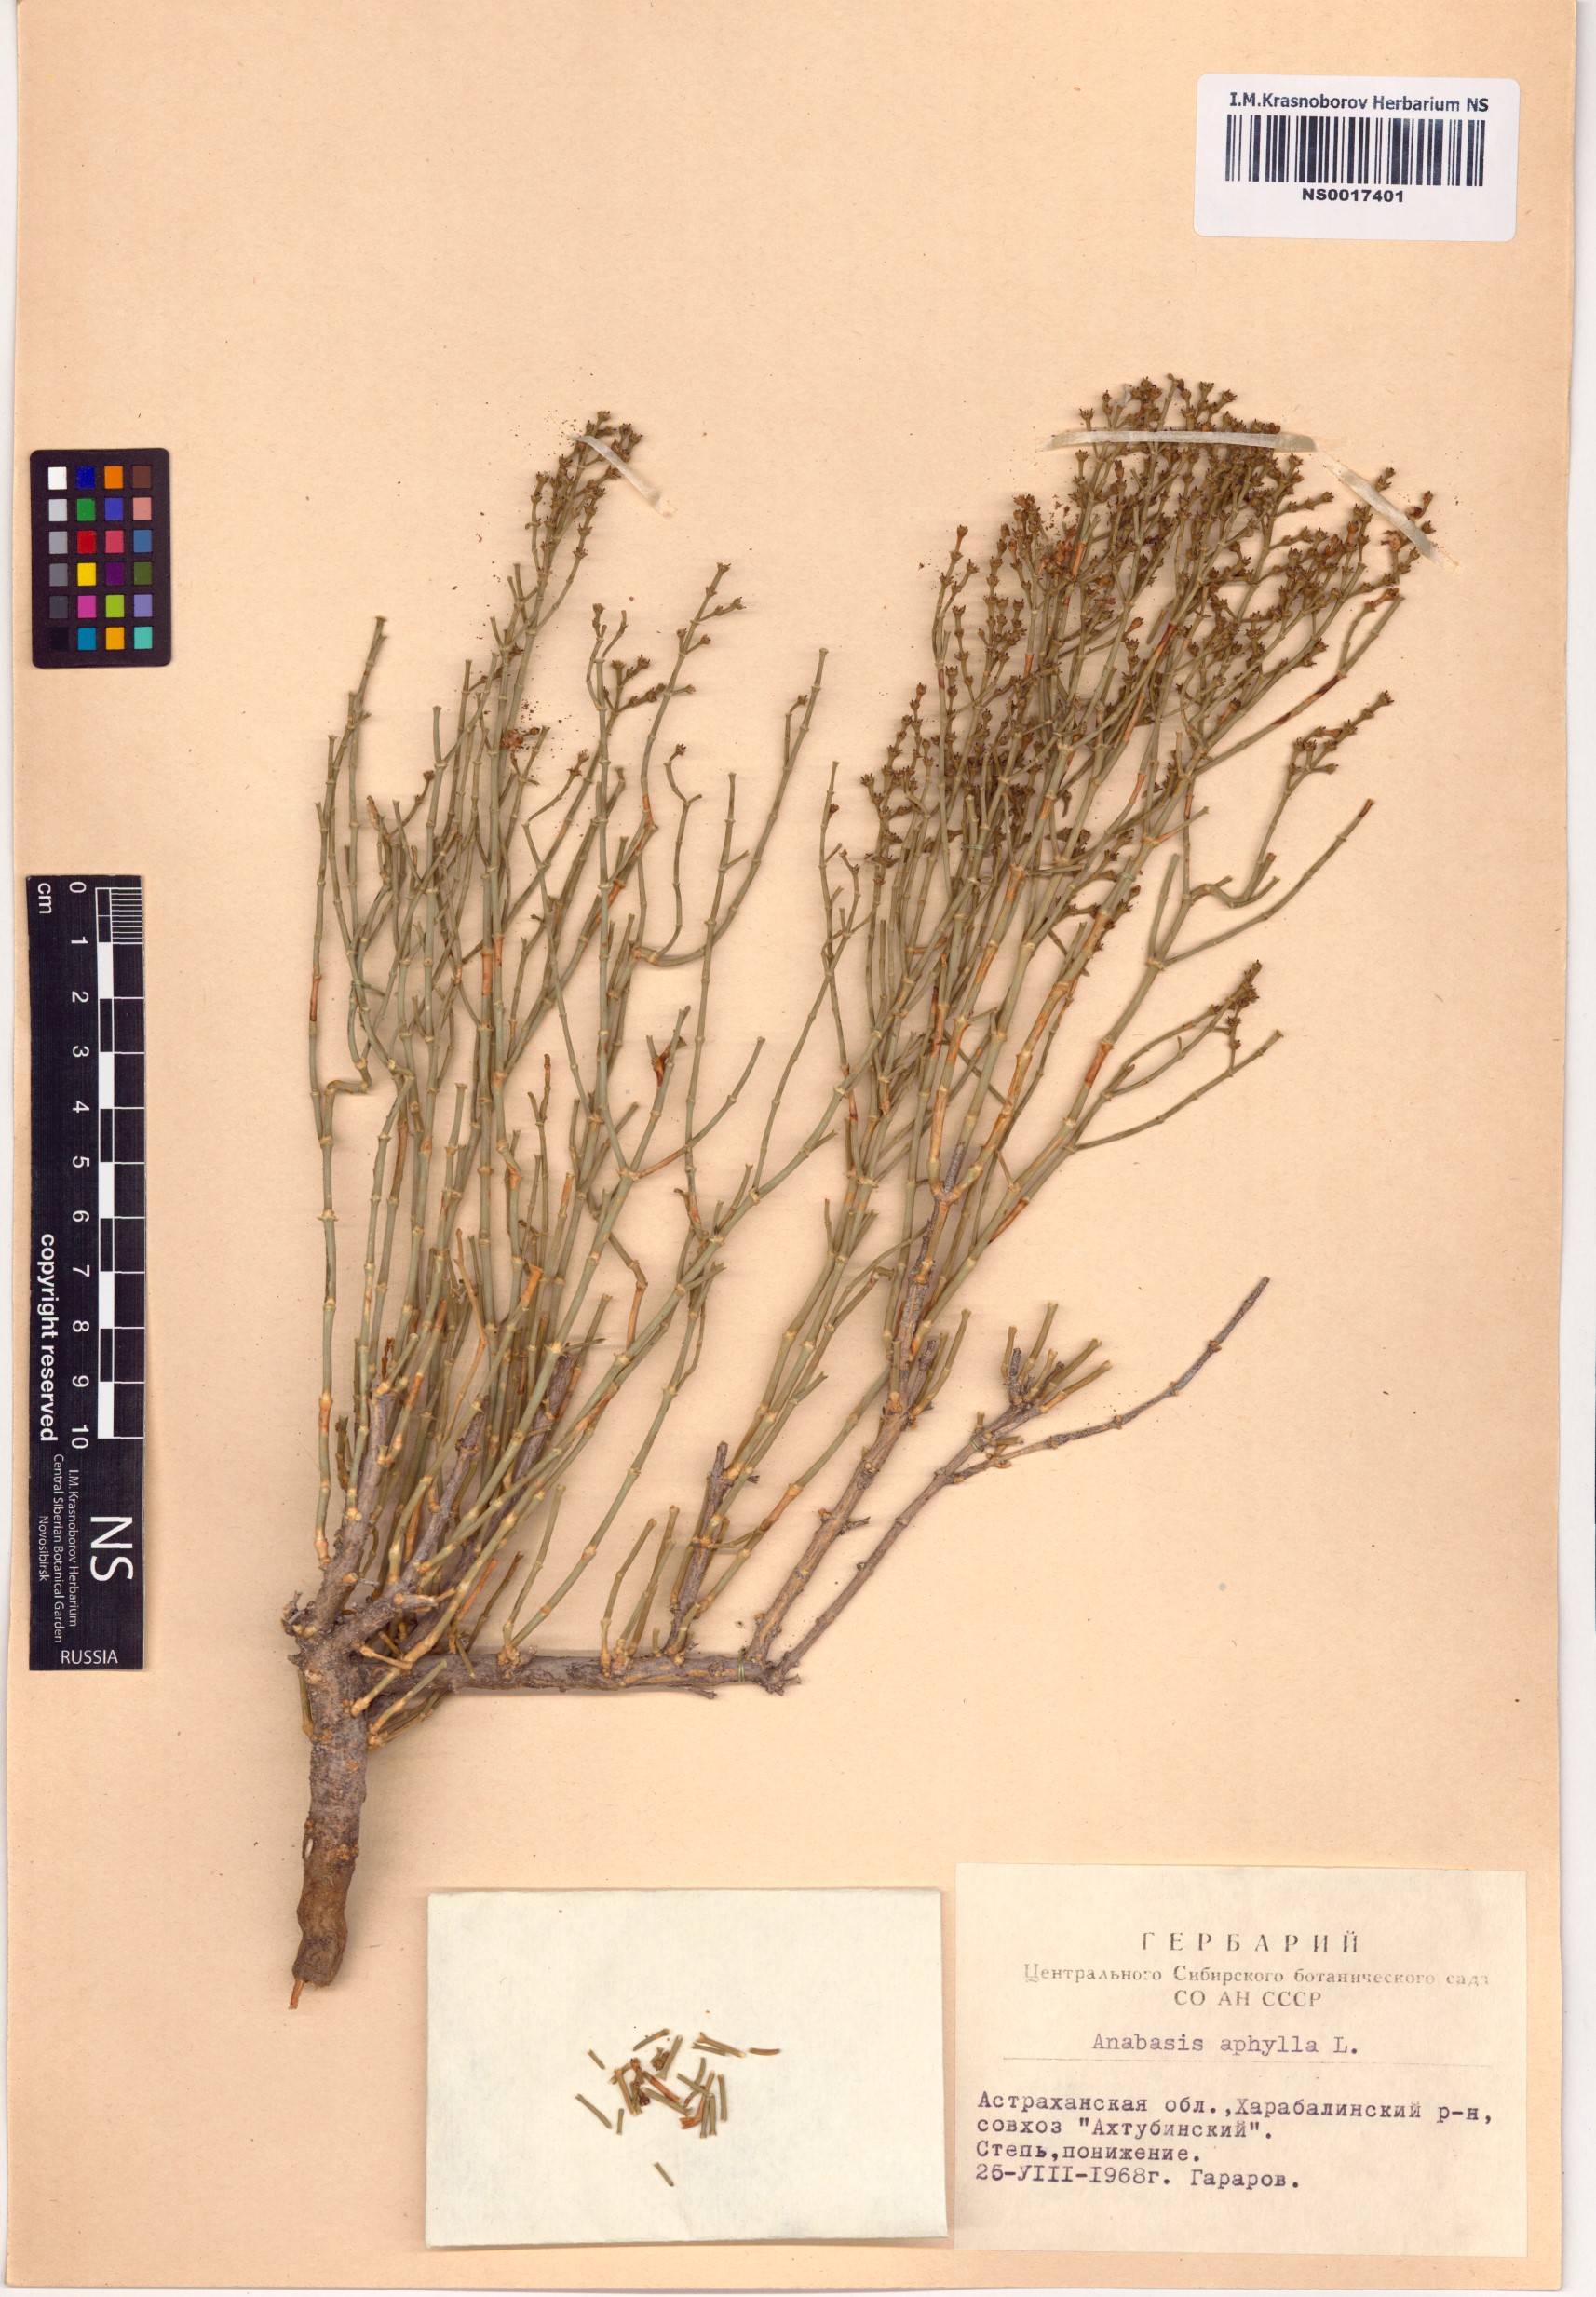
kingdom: Plantae
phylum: Tracheophyta
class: Magnoliopsida
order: Caryophyllales
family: Amaranthaceae
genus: Anabasis
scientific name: Anabasis aphylla
